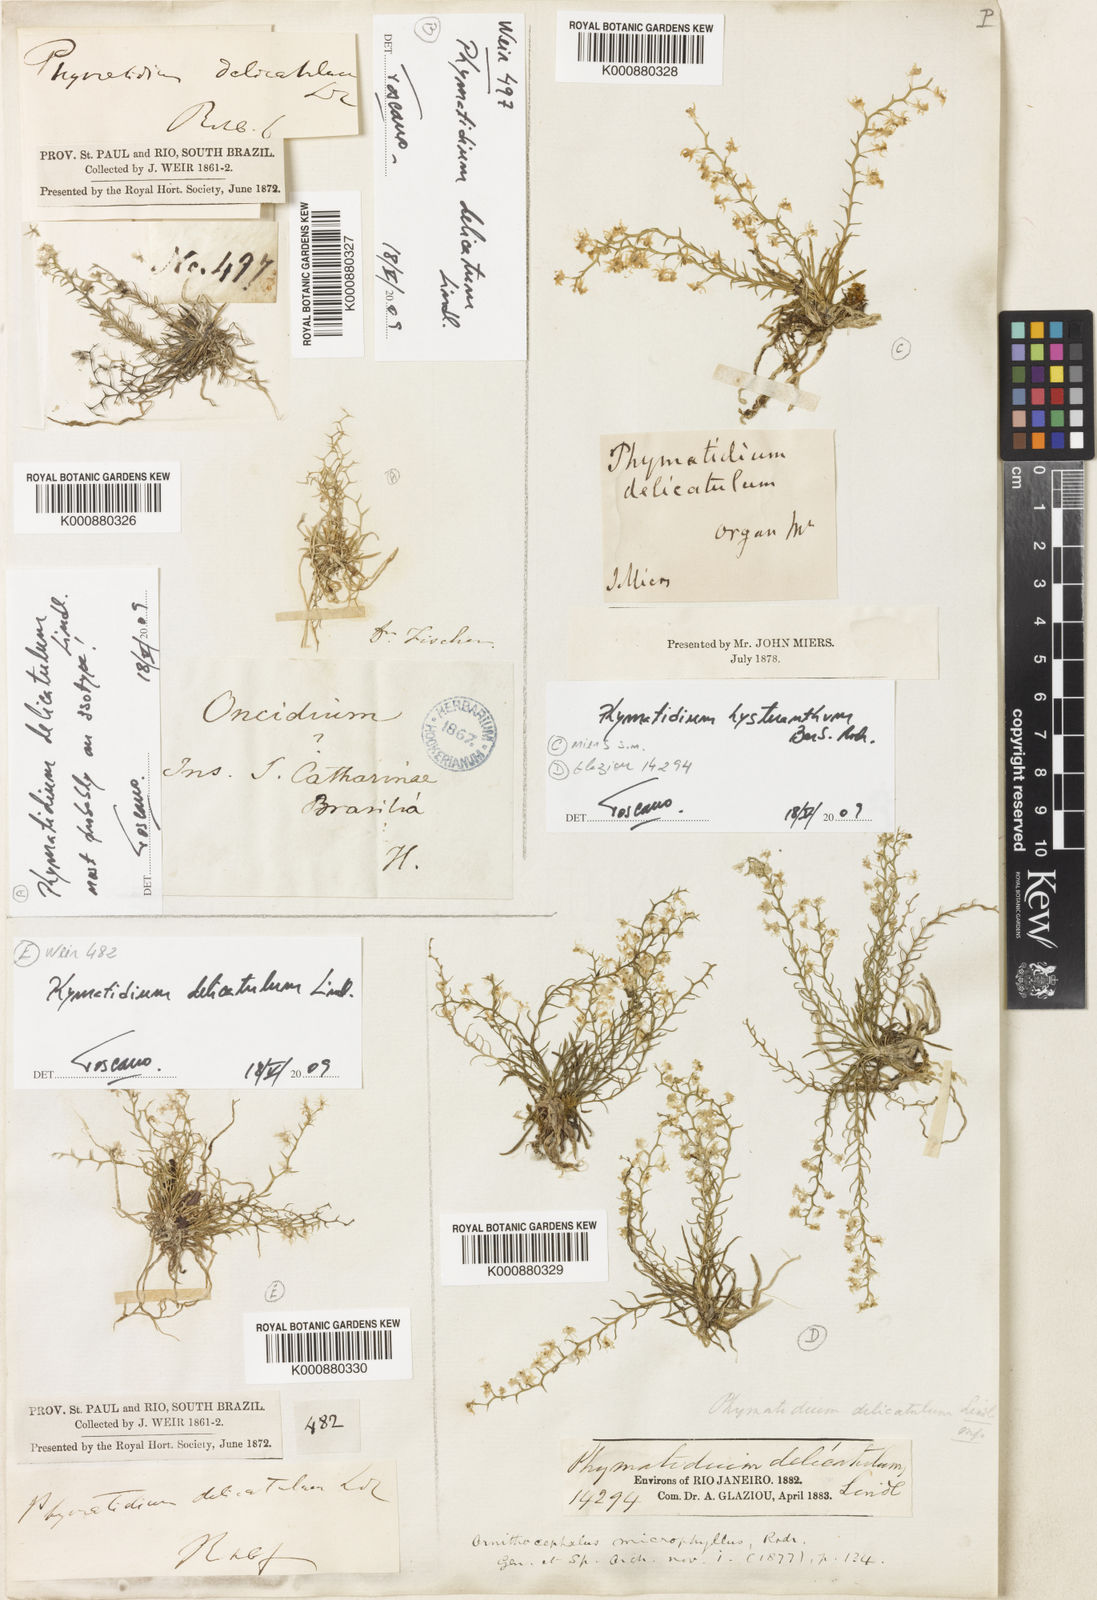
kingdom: Plantae
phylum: Tracheophyta
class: Liliopsida
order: Asparagales
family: Orchidaceae
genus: Phymatidium
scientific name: Phymatidium delicatulum
